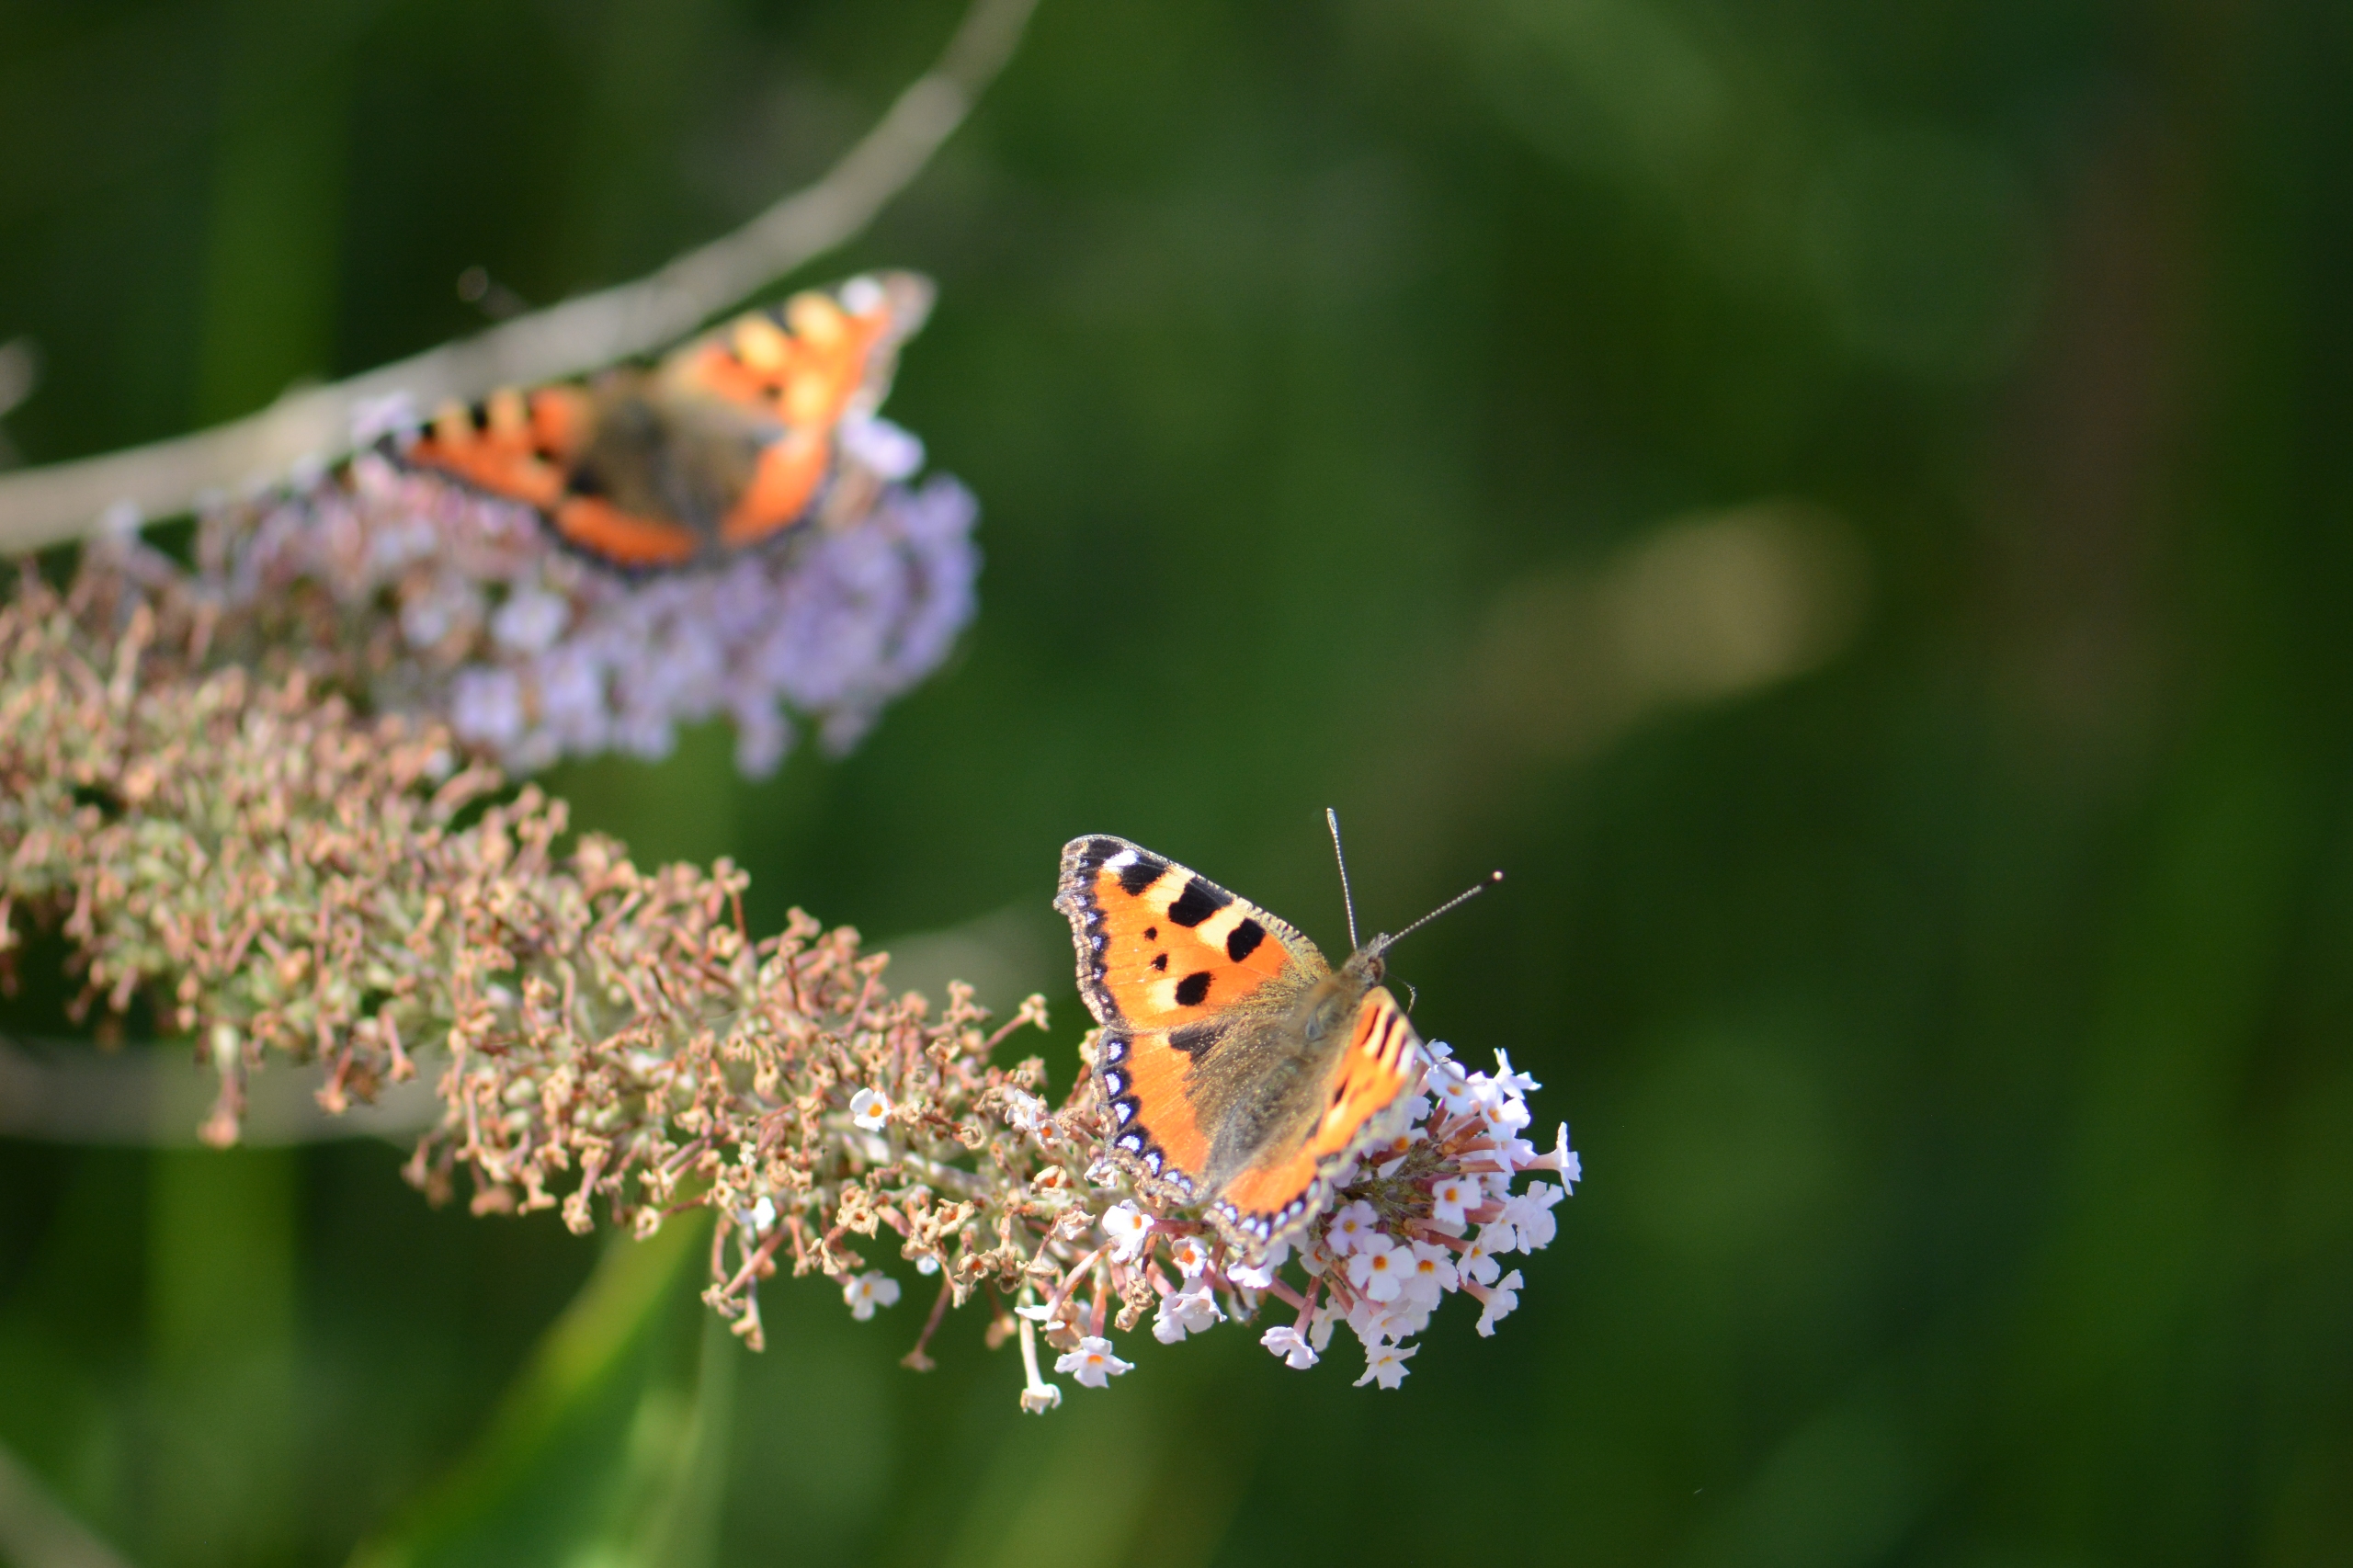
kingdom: Animalia
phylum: Arthropoda
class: Insecta
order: Lepidoptera
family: Nymphalidae
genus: Aglais
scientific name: Aglais urticae
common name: Nældens takvinge
